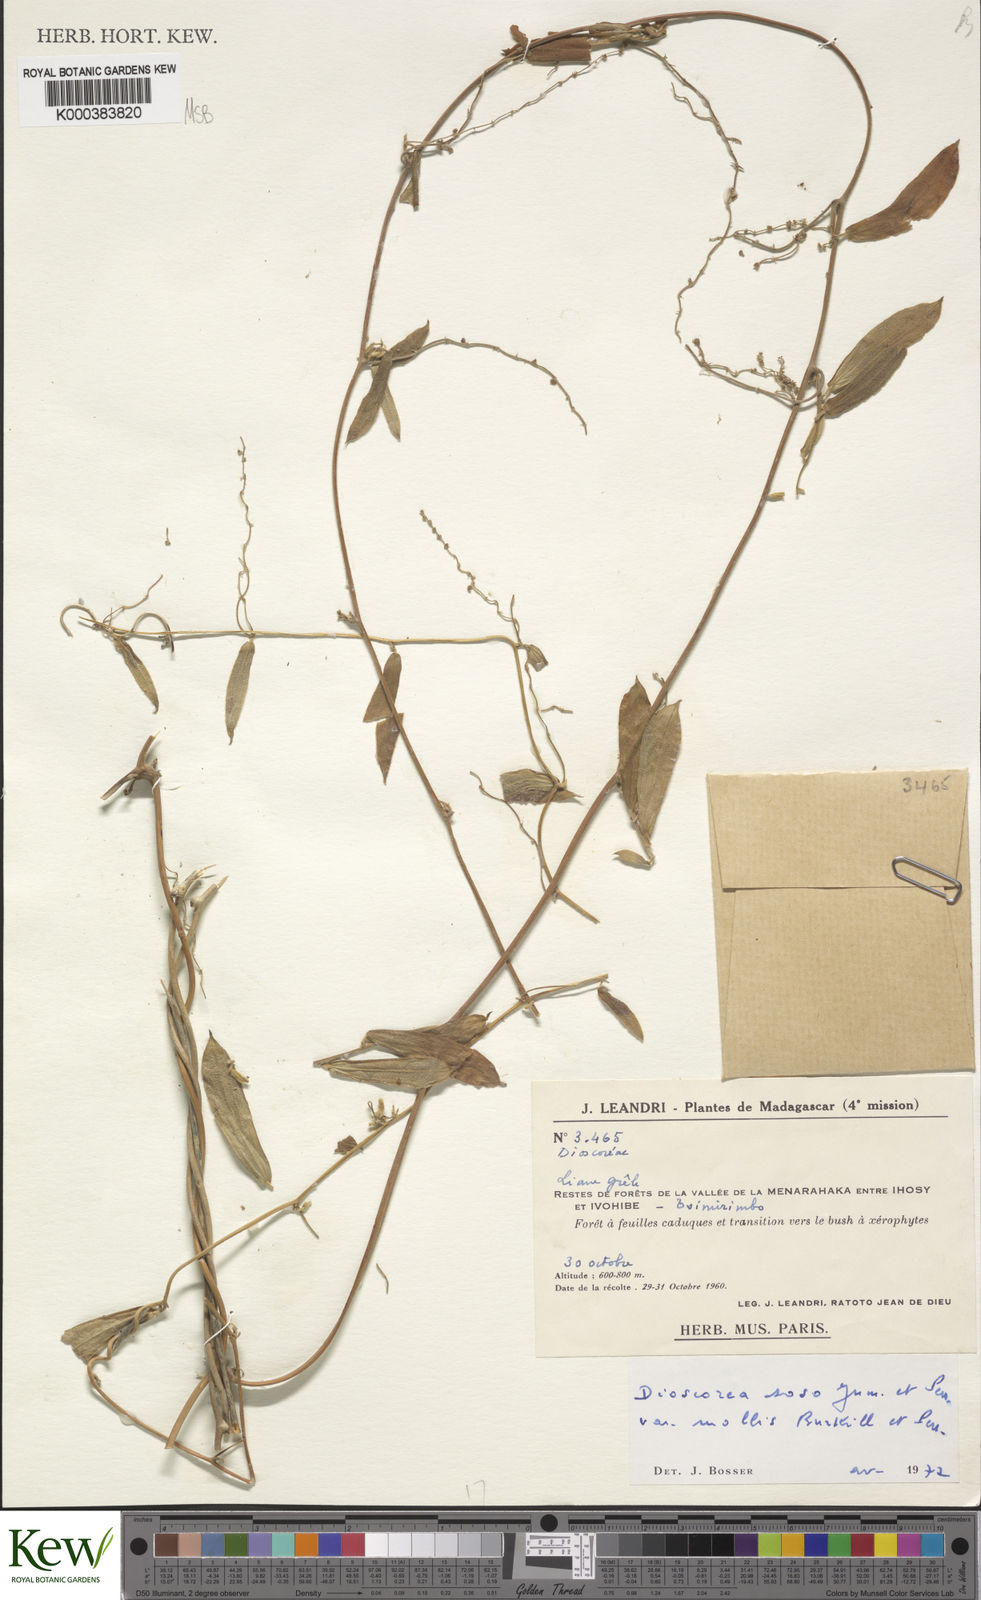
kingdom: Plantae
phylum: Tracheophyta
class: Liliopsida
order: Dioscoreales
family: Dioscoreaceae
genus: Dioscorea
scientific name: Dioscorea
